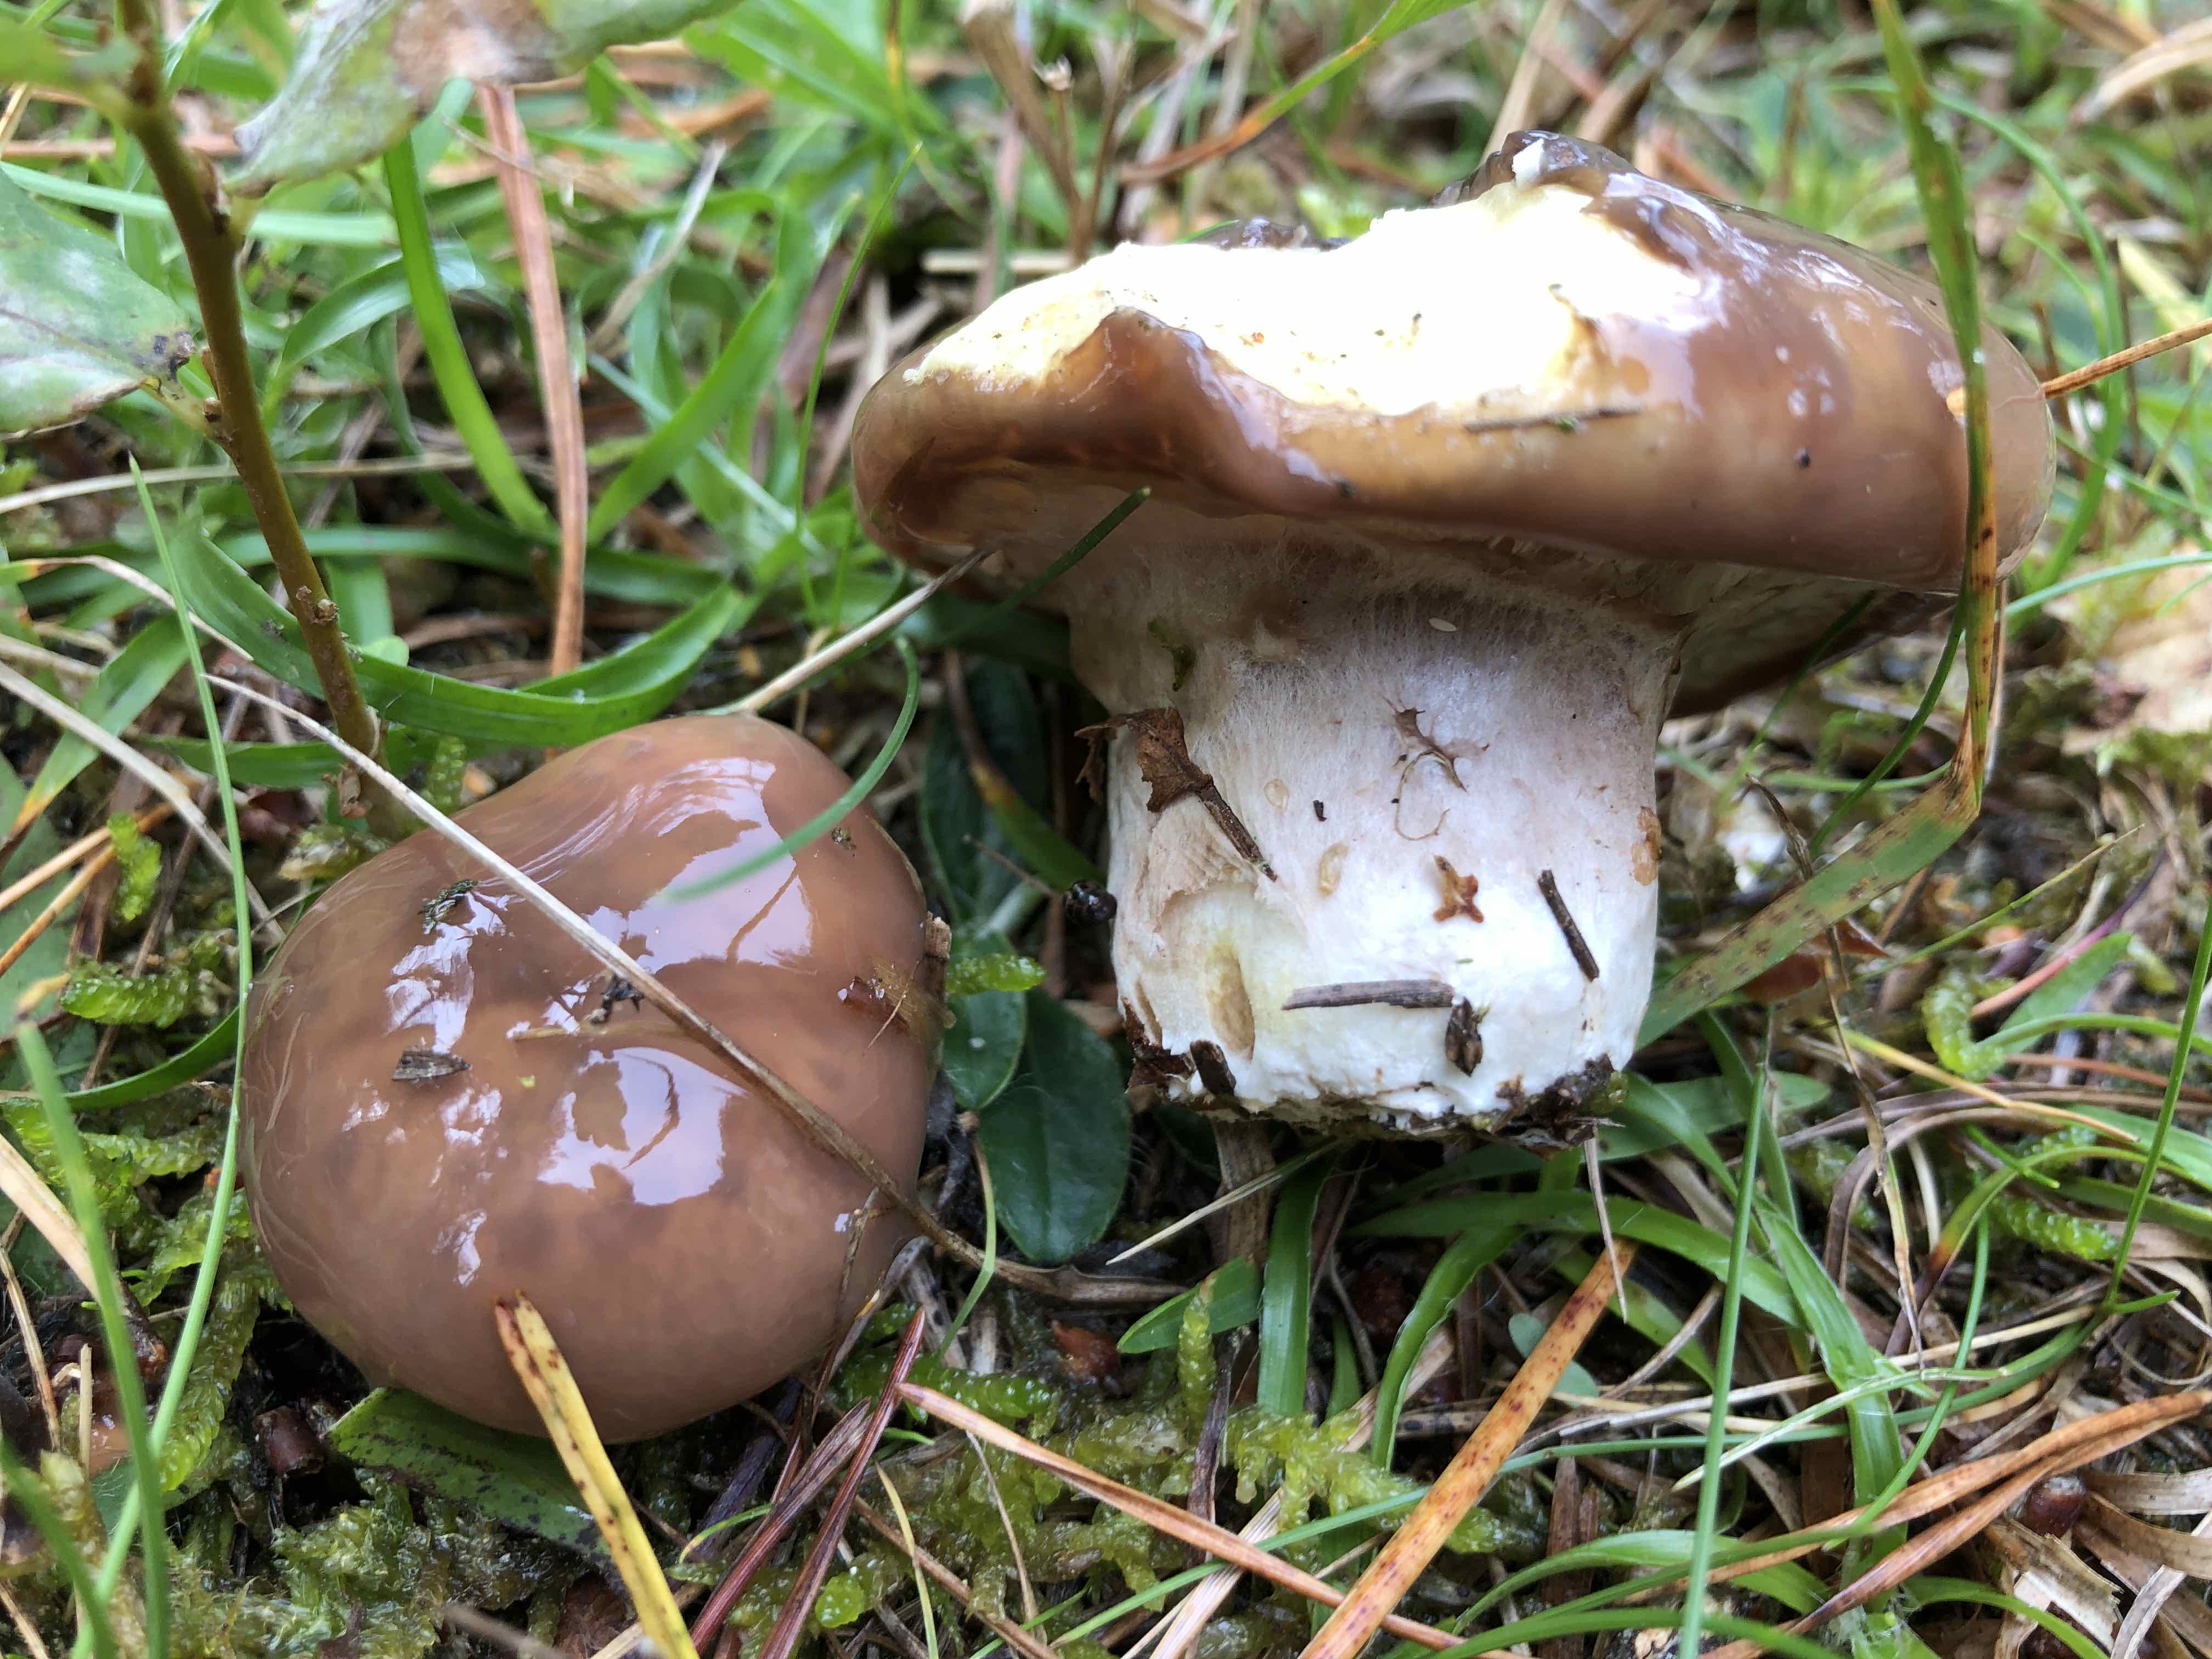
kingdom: Fungi
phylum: Basidiomycota
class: Agaricomycetes
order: Boletales
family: Suillaceae
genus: Suillus
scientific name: Suillus luteus
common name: brungul slimrørhat
